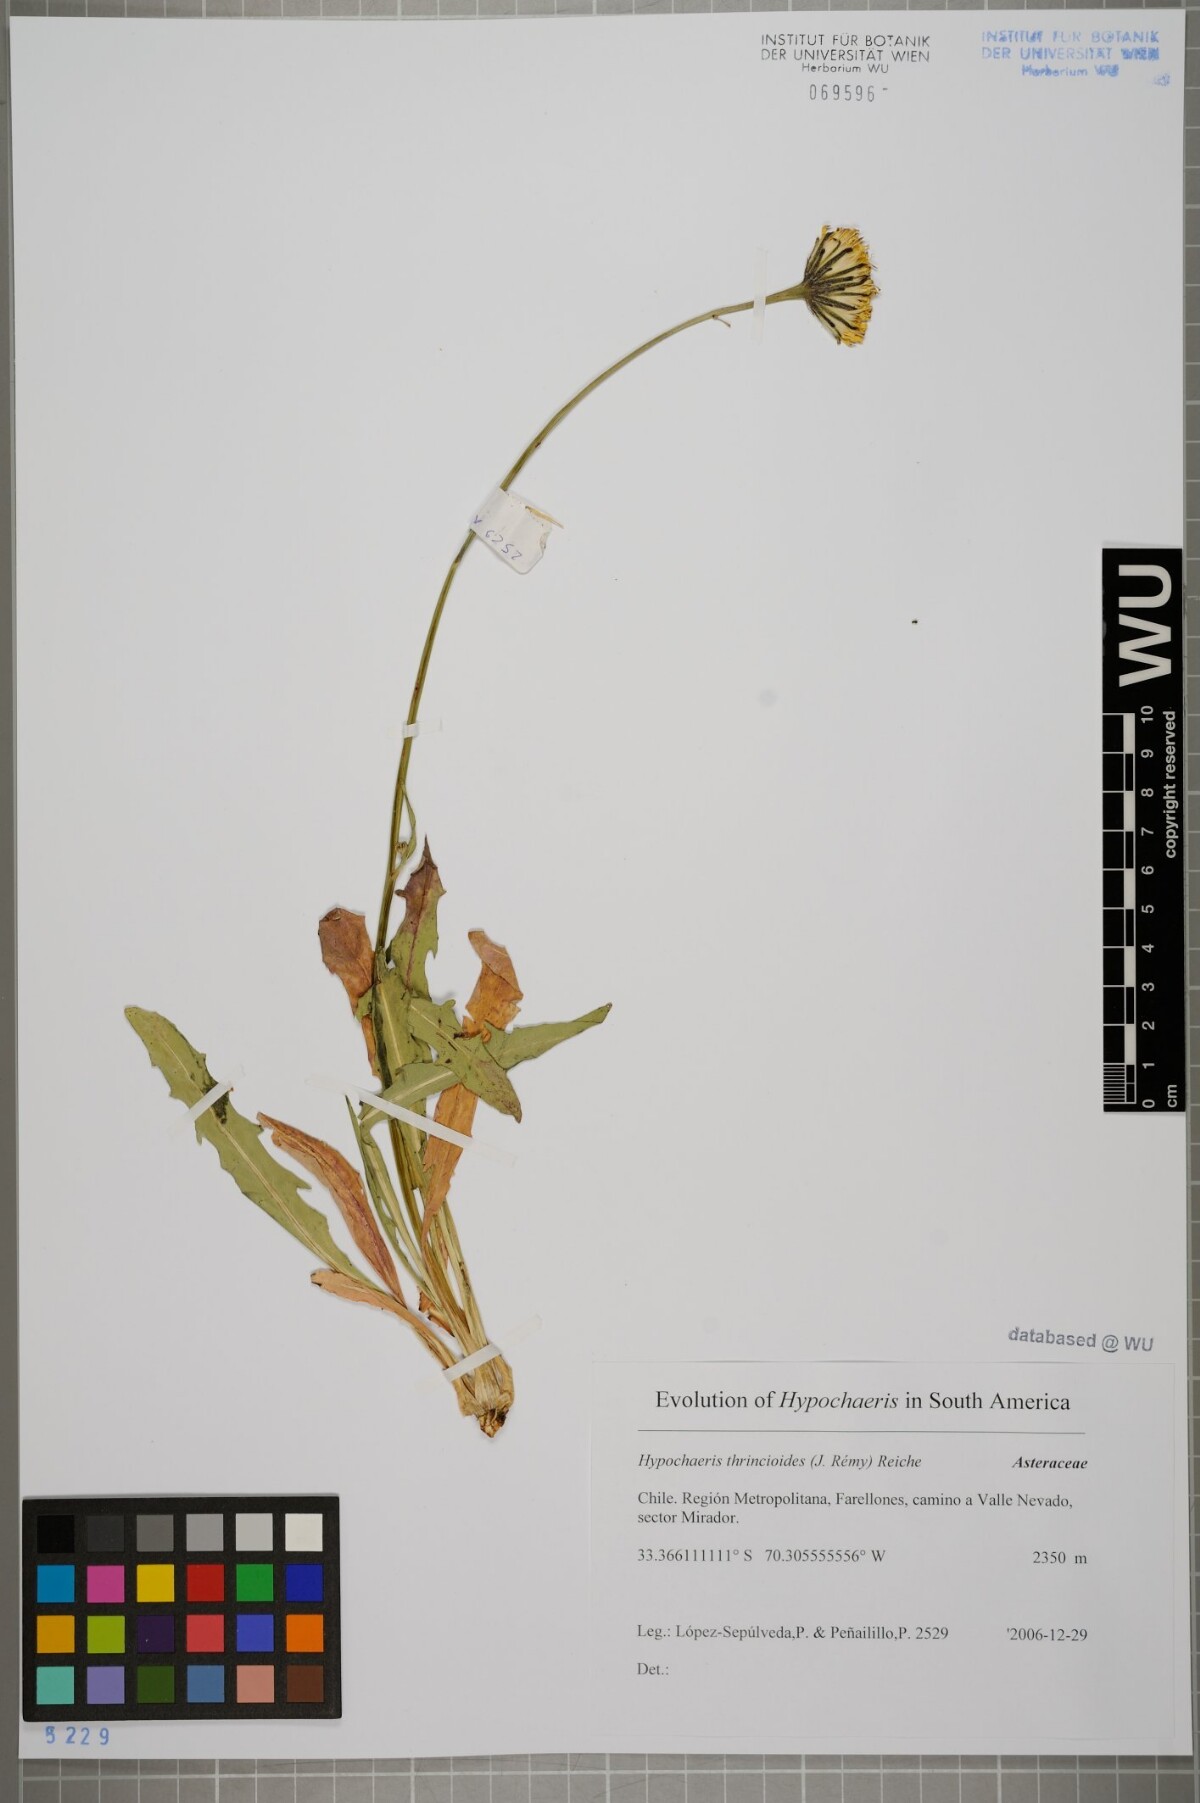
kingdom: Plantae
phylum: Tracheophyta
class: Magnoliopsida
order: Asterales
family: Asteraceae
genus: Hypochaeris
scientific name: Hypochaeris apargioides
